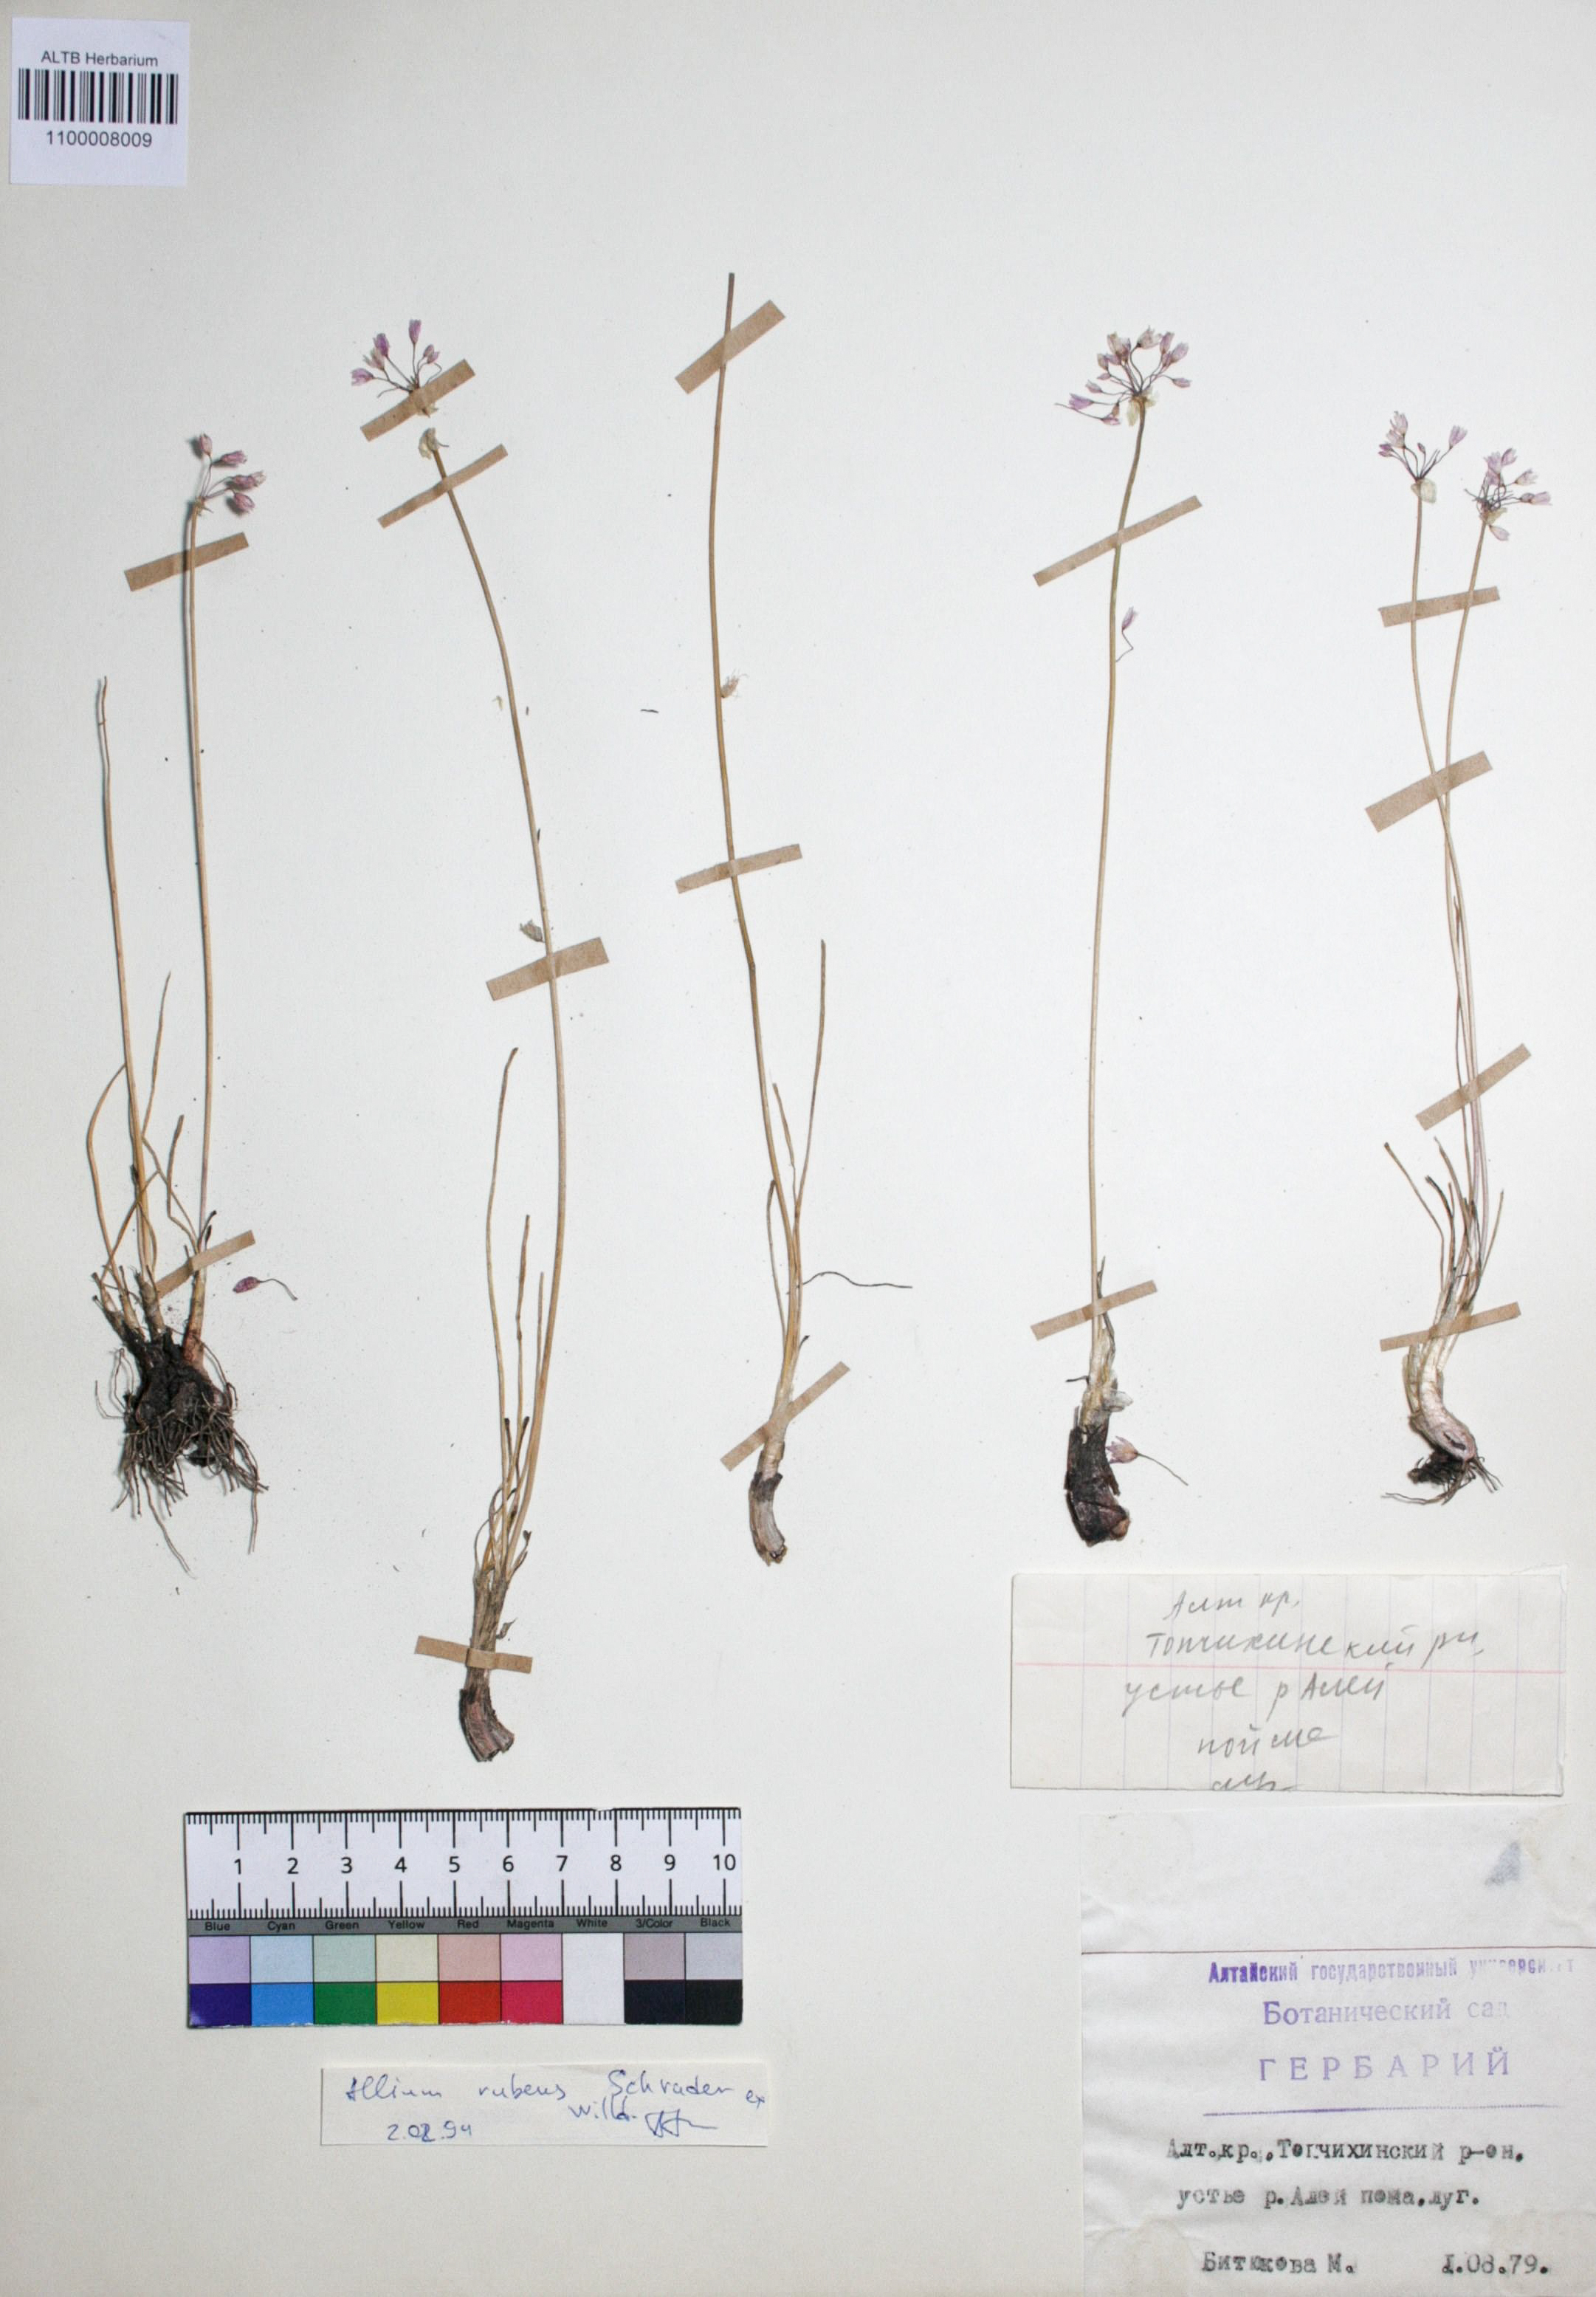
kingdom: Plantae
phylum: Tracheophyta
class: Liliopsida
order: Asparagales
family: Amaryllidaceae
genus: Allium
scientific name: Allium rubens
